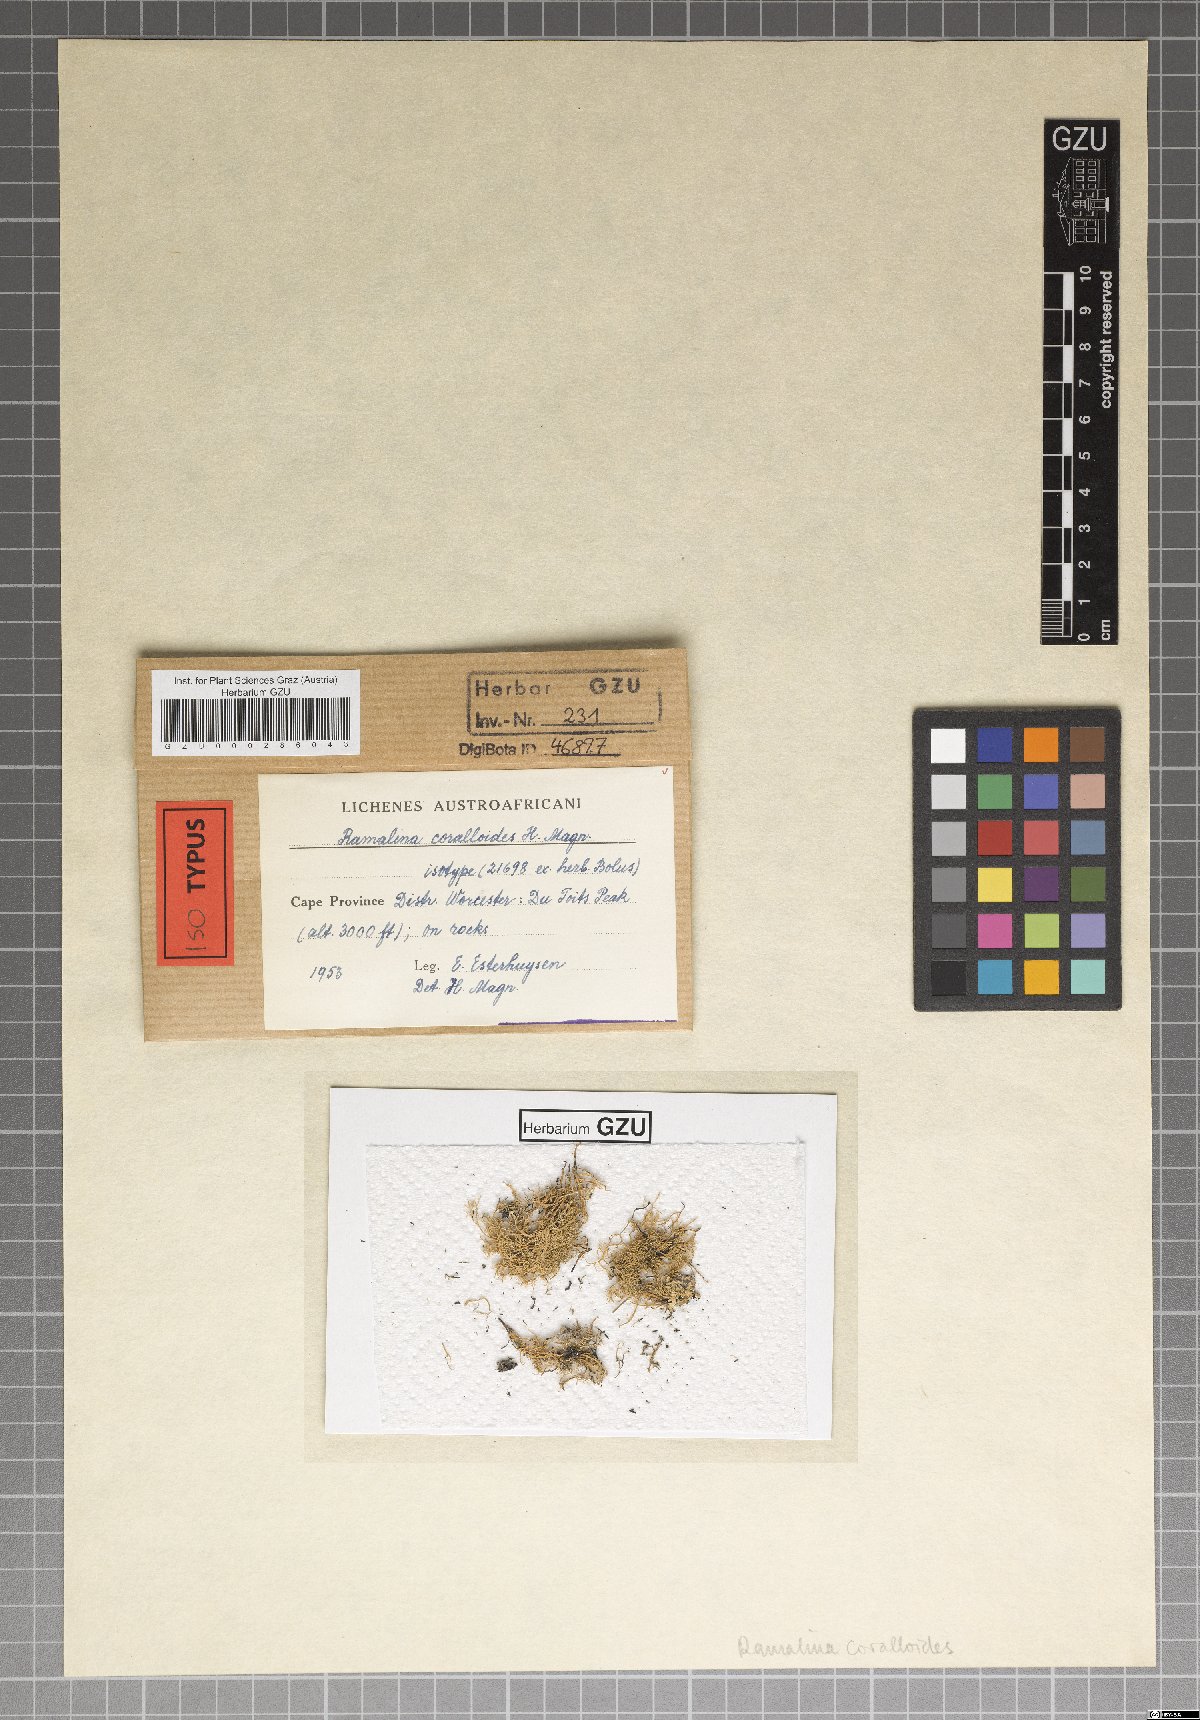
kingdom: Fungi
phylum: Ascomycota
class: Lecanoromycetes
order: Lecanorales
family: Ramalinaceae
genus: Ramalina
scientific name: Ramalina
